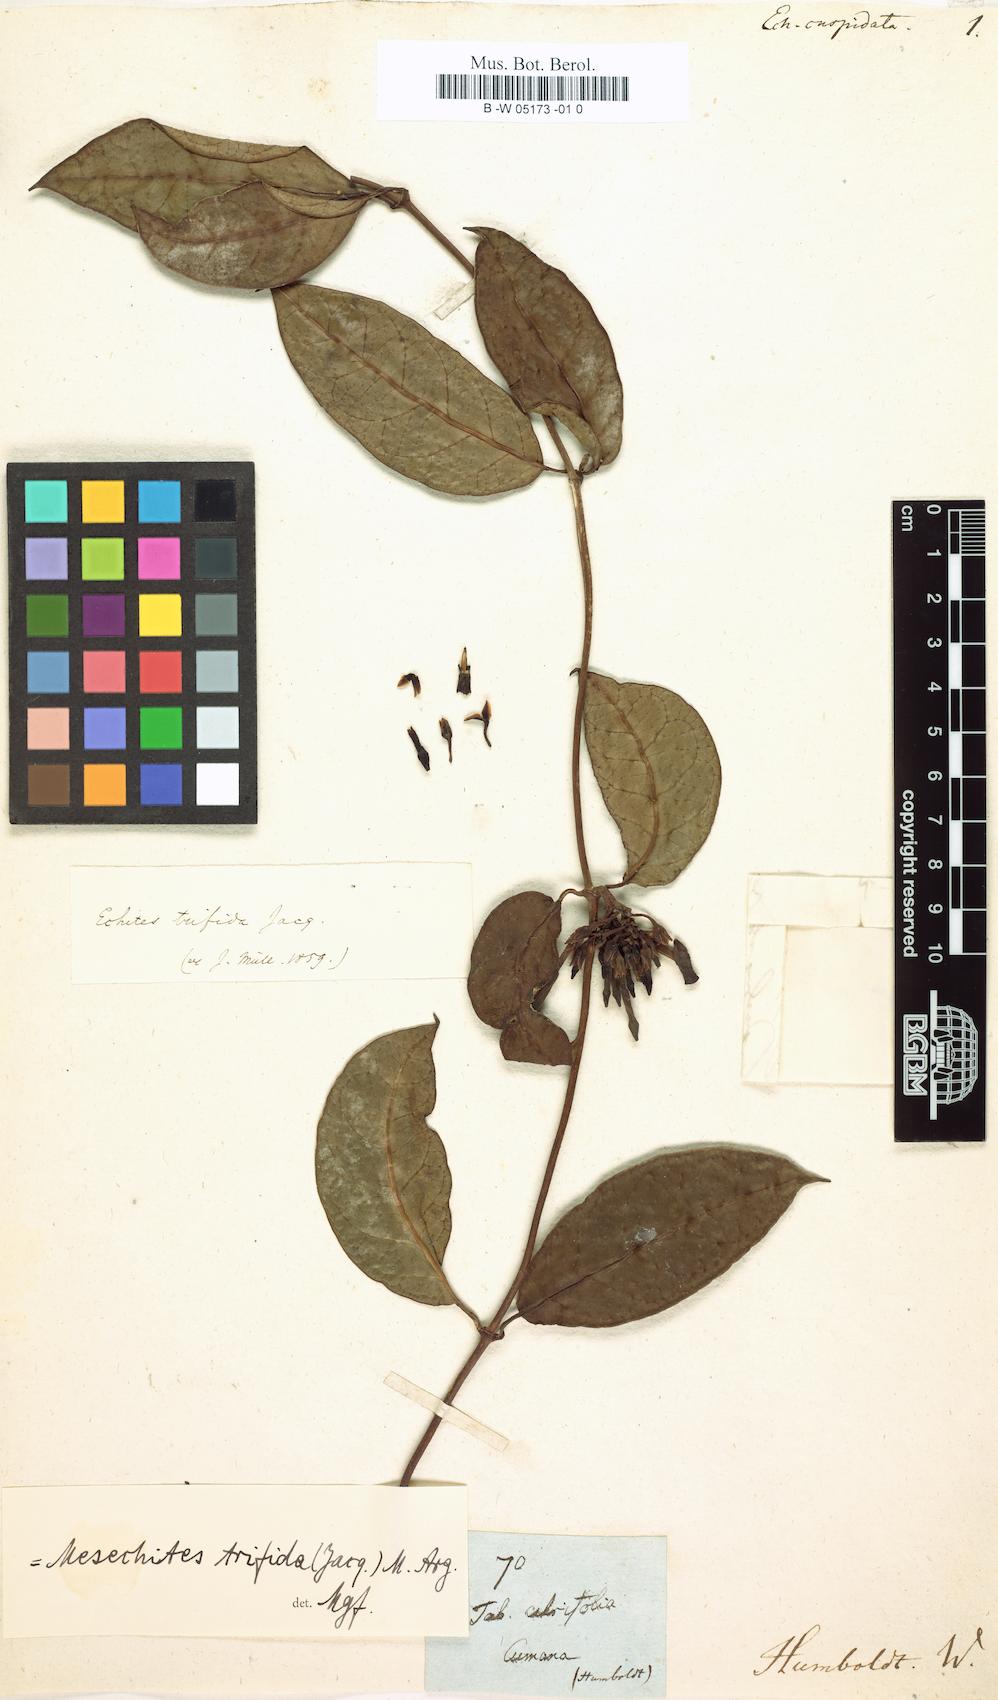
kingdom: Plantae
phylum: Tracheophyta
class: Magnoliopsida
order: Gentianales
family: Apocynaceae
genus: Mesechites
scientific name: Mesechites trifidus
